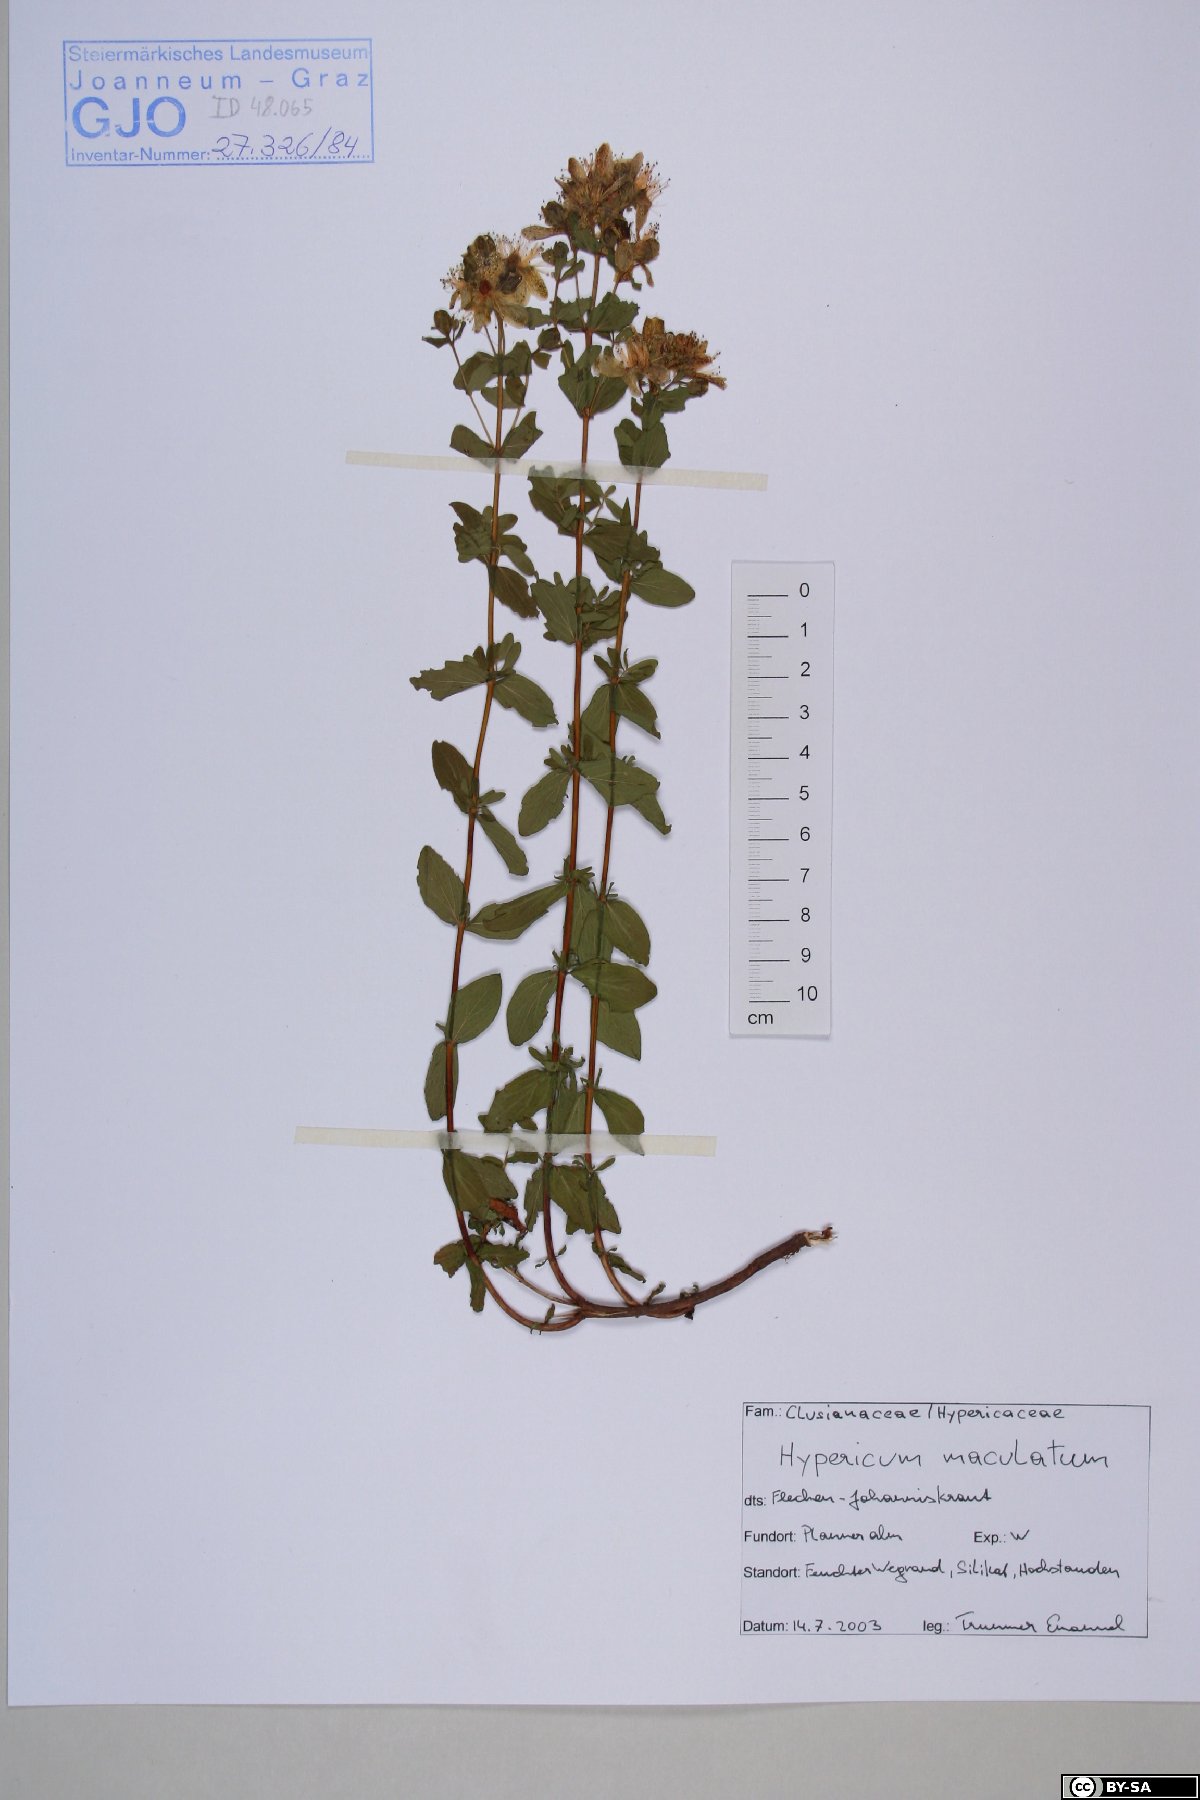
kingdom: Plantae
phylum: Tracheophyta
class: Magnoliopsida
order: Malpighiales
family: Hypericaceae
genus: Hypericum
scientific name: Hypericum maculatum
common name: Imperforate st. john's-wort
